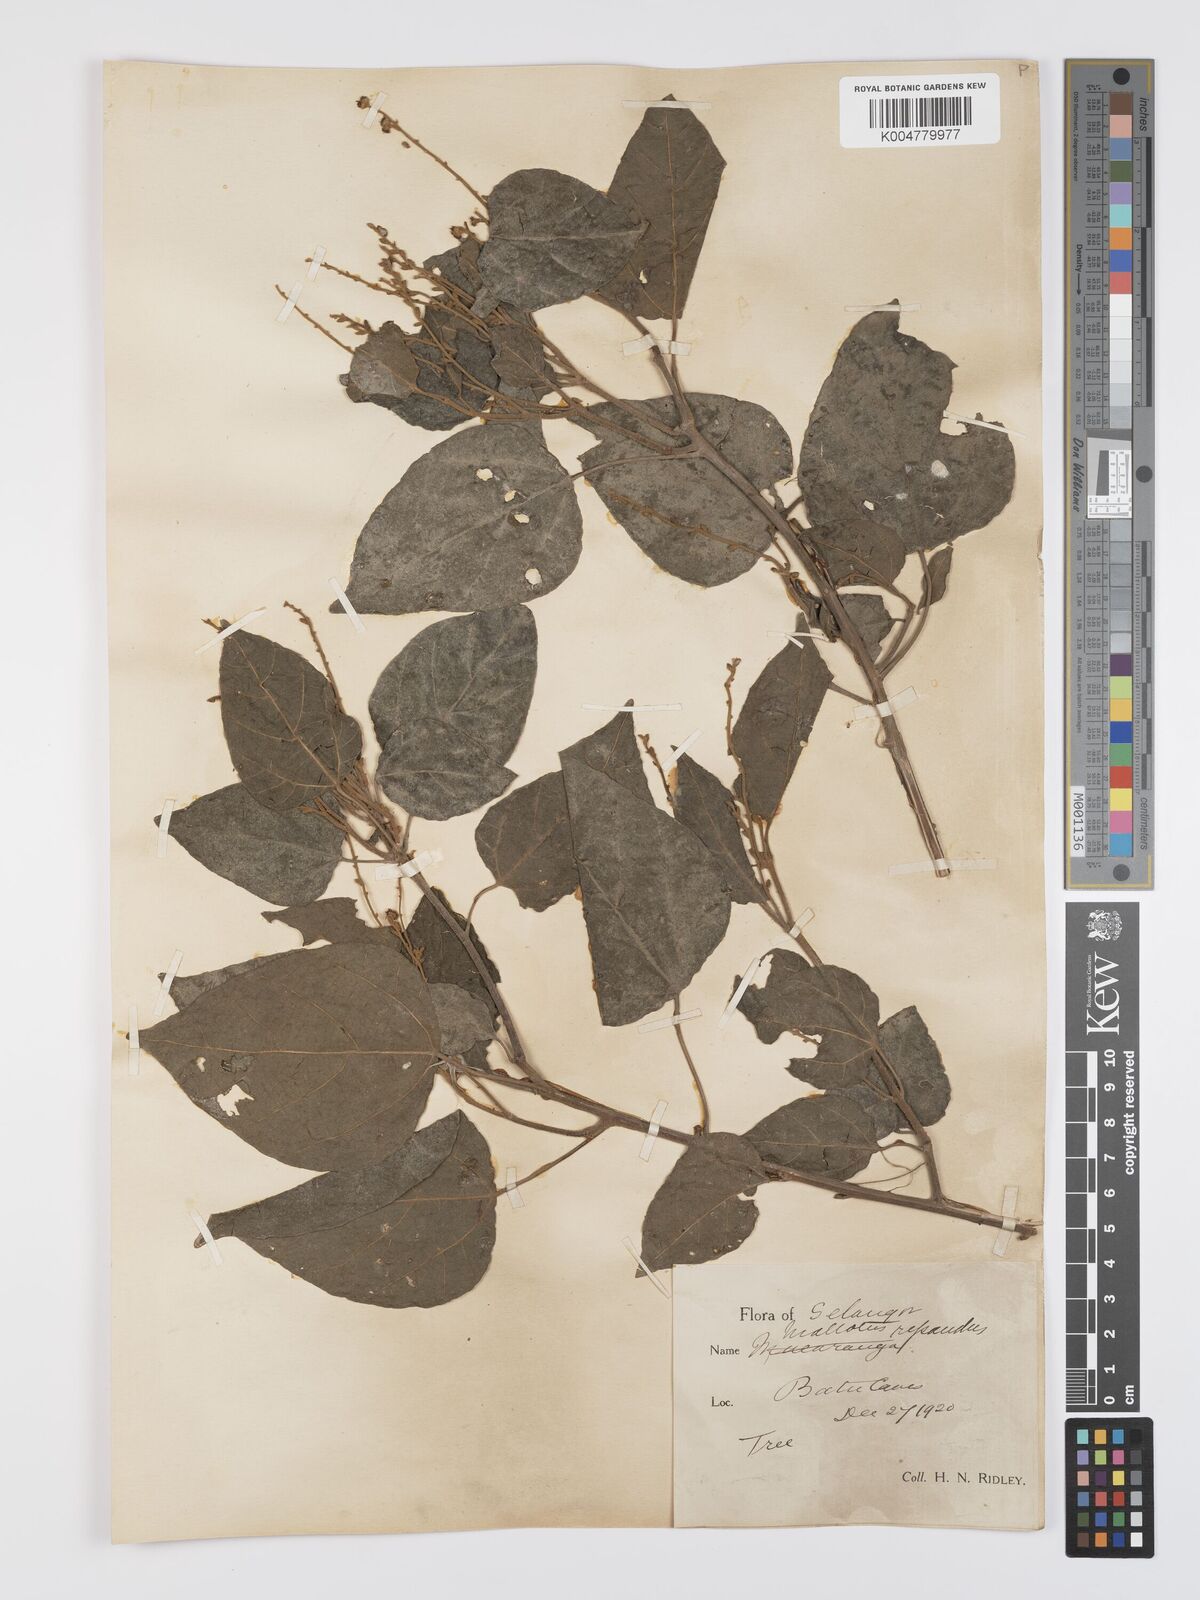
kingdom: Plantae
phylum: Tracheophyta
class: Magnoliopsida
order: Malpighiales
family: Euphorbiaceae
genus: Mallotus
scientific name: Mallotus repandus
